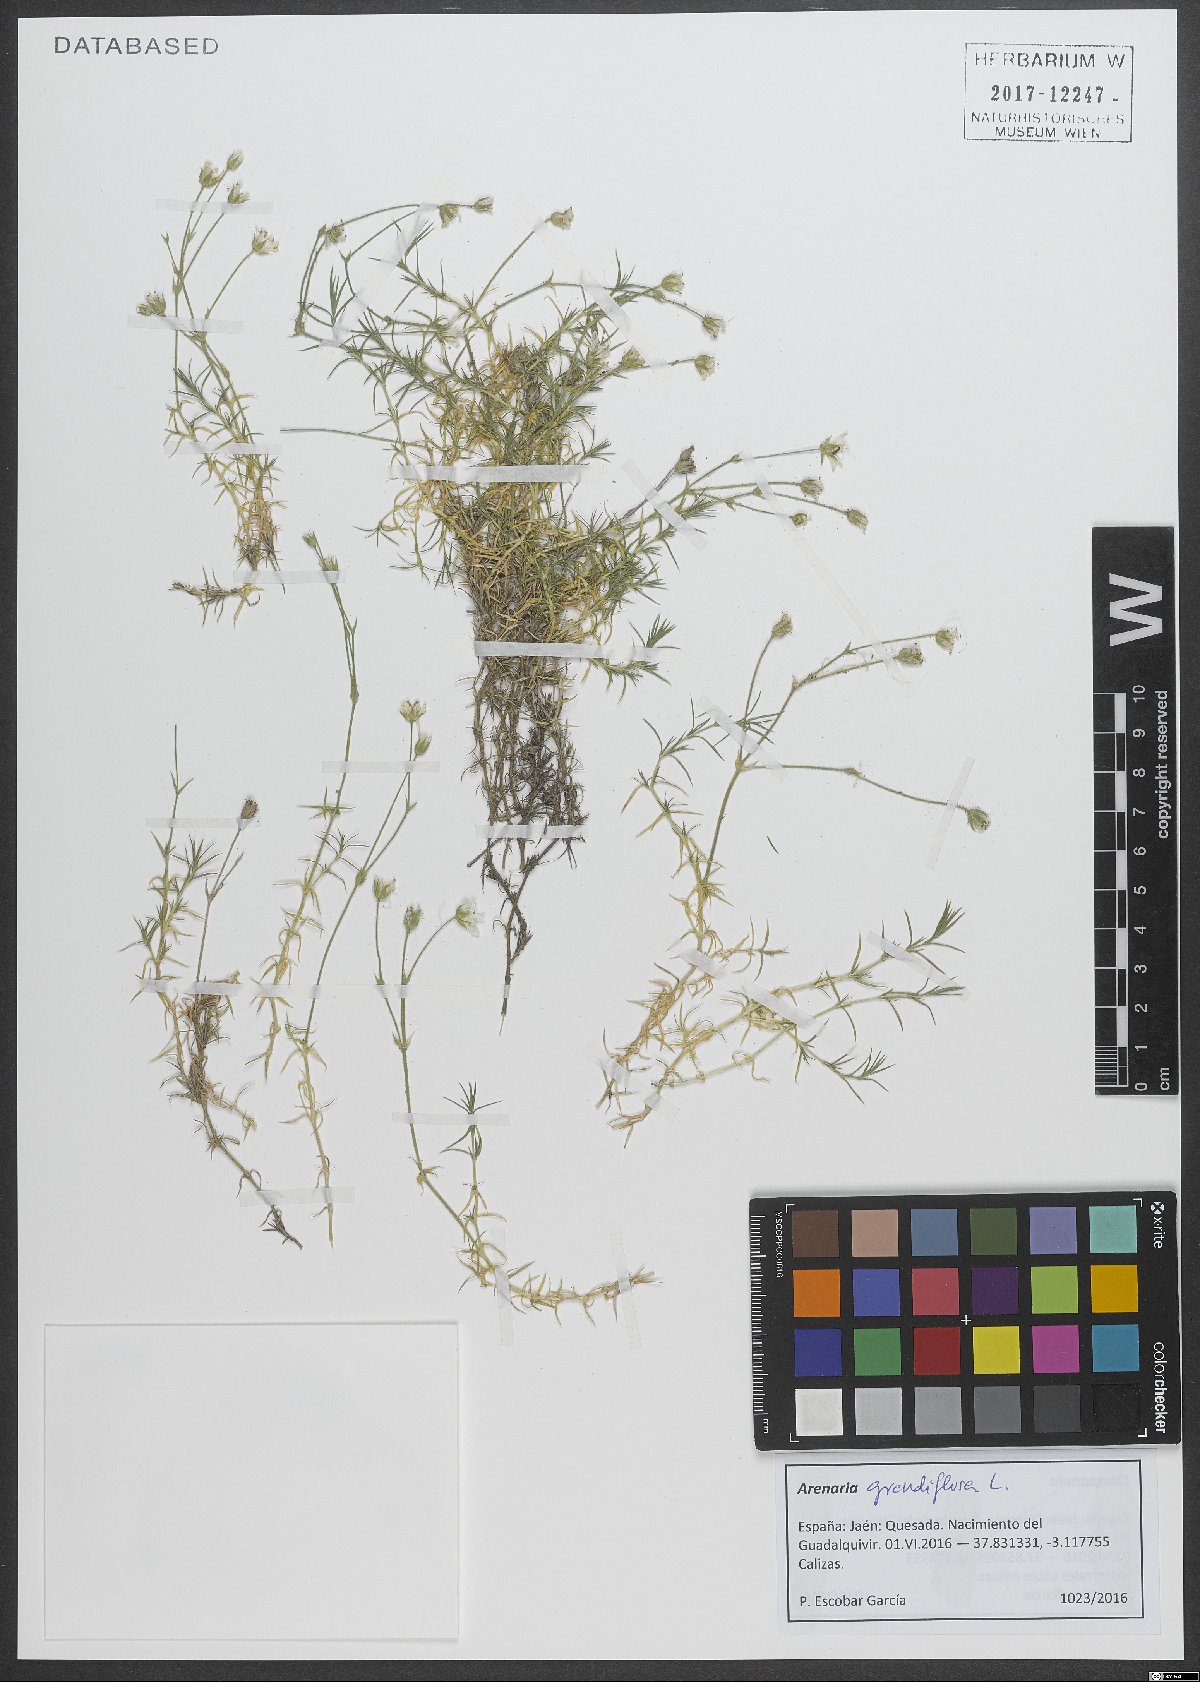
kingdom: Plantae
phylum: Tracheophyta
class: Magnoliopsida
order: Caryophyllales
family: Caryophyllaceae
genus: Arenaria
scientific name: Arenaria grandiflora
